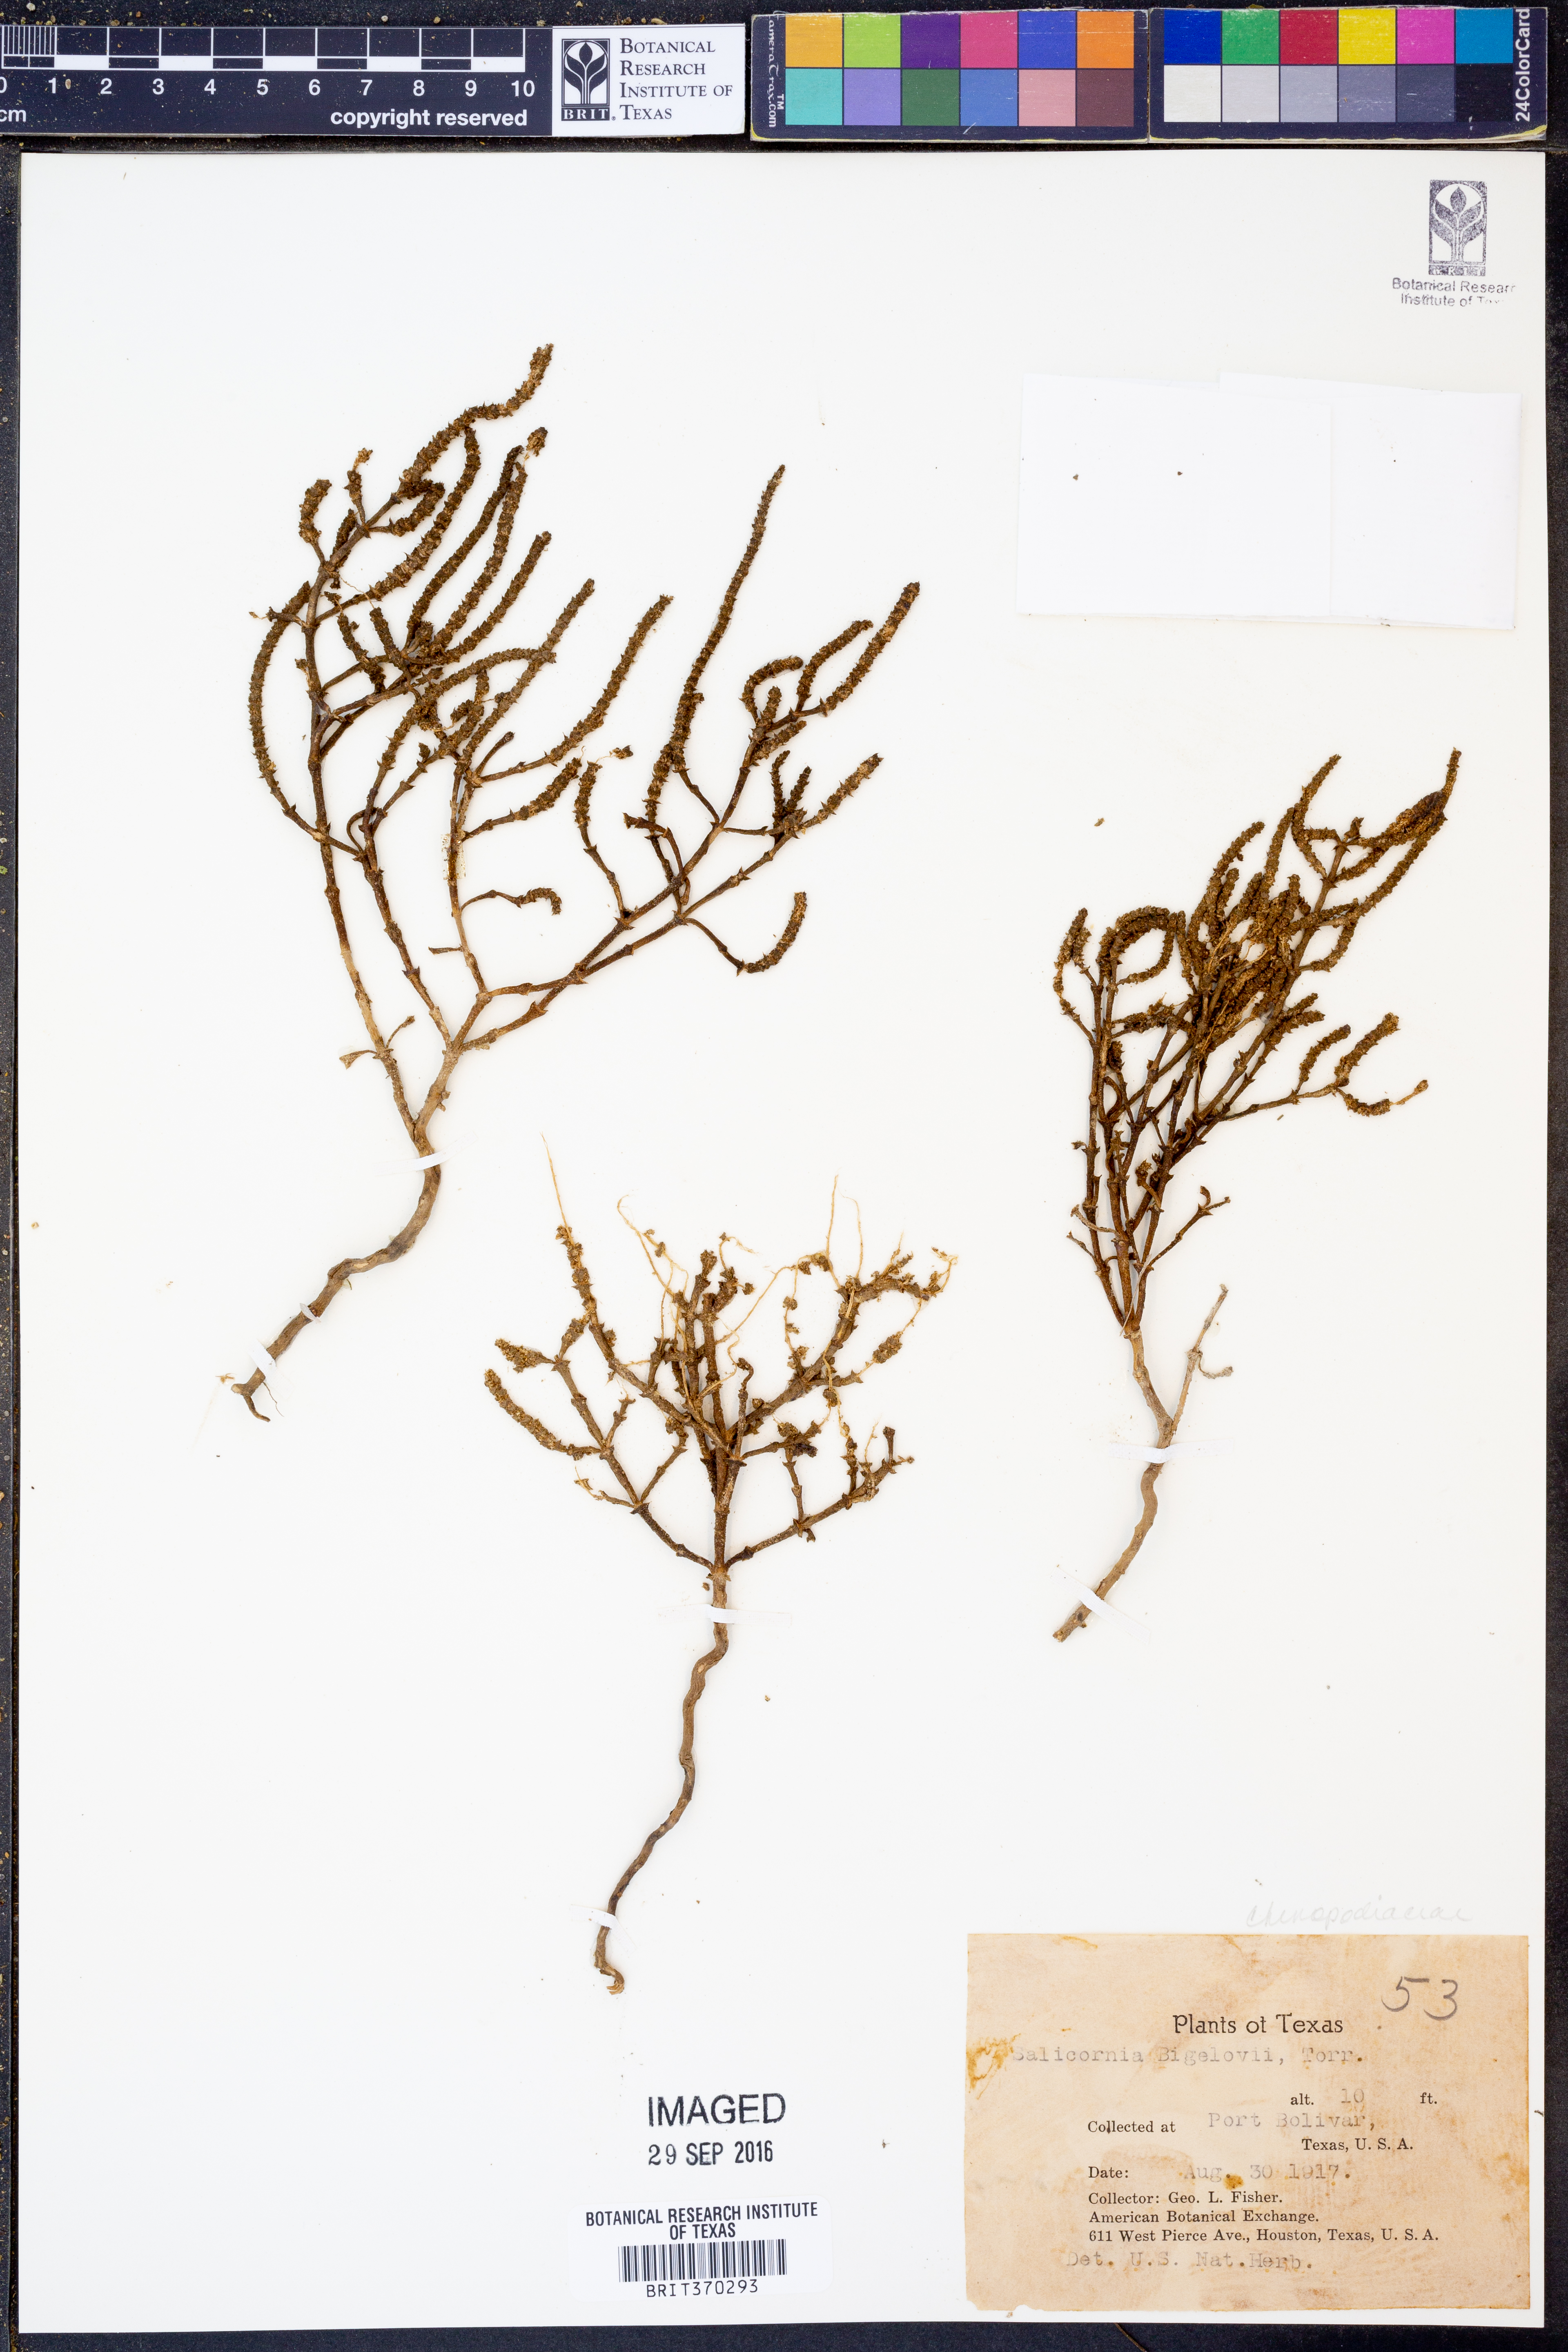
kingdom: Plantae
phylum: Tracheophyta
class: Magnoliopsida
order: Caryophyllales
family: Amaranthaceae
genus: Salicornia
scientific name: Salicornia bigelovii
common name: Dwarf glasswort
